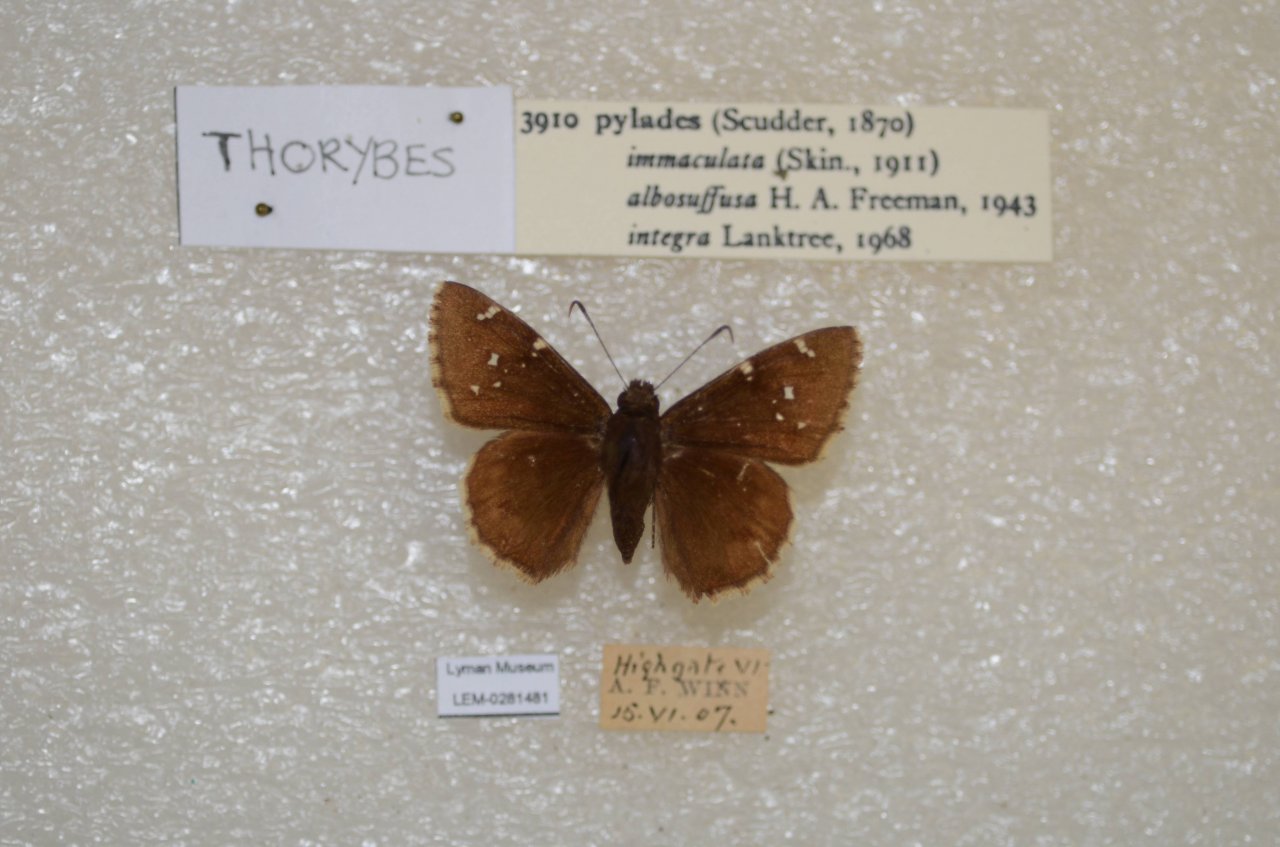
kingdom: Animalia
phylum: Arthropoda
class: Insecta
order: Lepidoptera
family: Hesperiidae
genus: Autochton
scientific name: Autochton
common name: Northern Cloudywing
